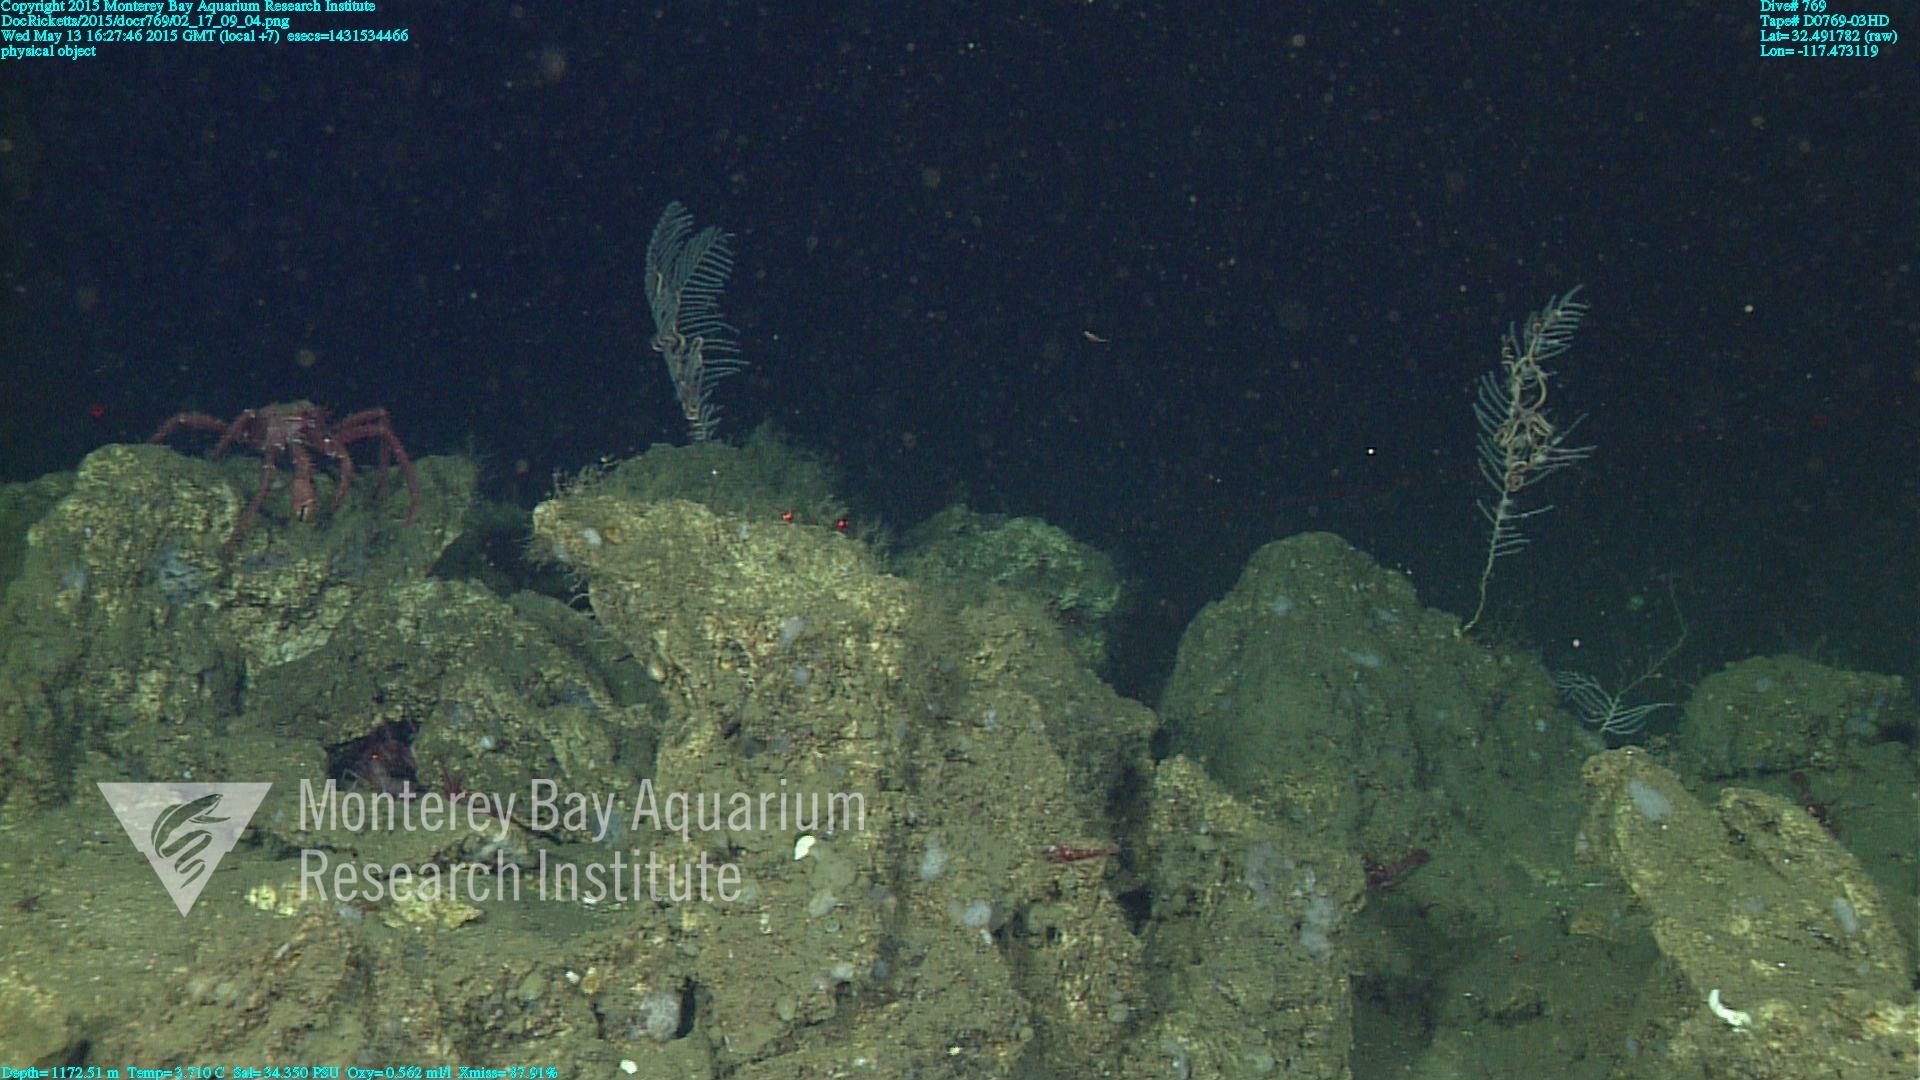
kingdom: Animalia
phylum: Cnidaria
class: Anthozoa
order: Scleralcyonacea
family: Primnoidae
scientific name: Primnoidae
